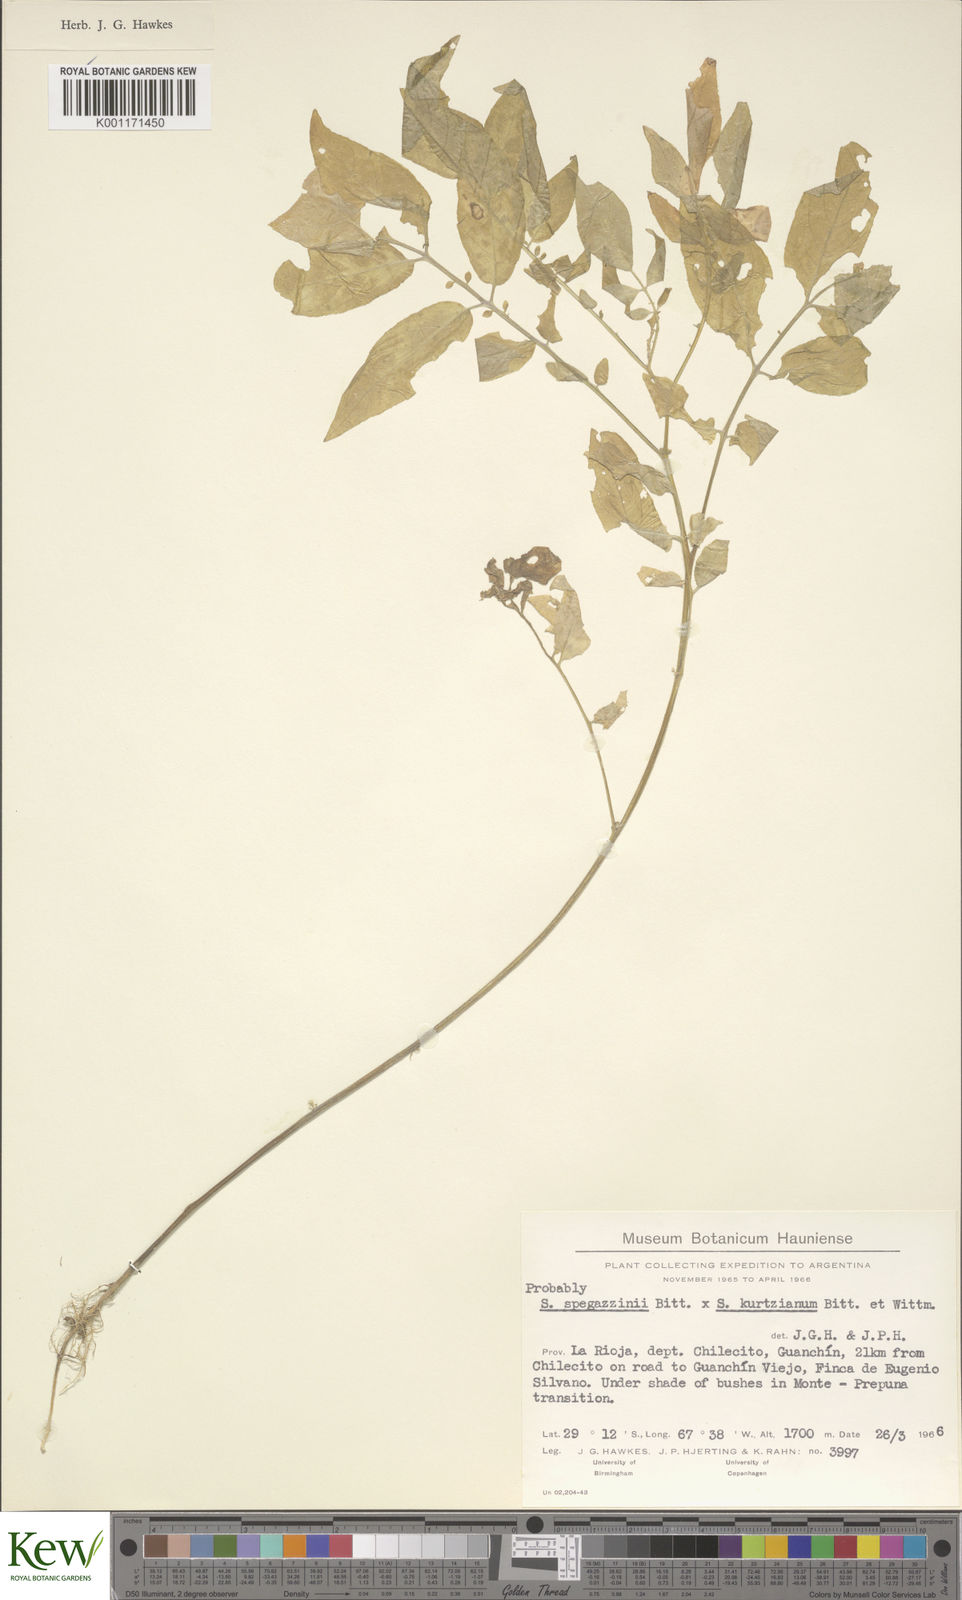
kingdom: Plantae
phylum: Tracheophyta
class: Magnoliopsida
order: Solanales
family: Solanaceae
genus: Solanum
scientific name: Solanum brevicaule
